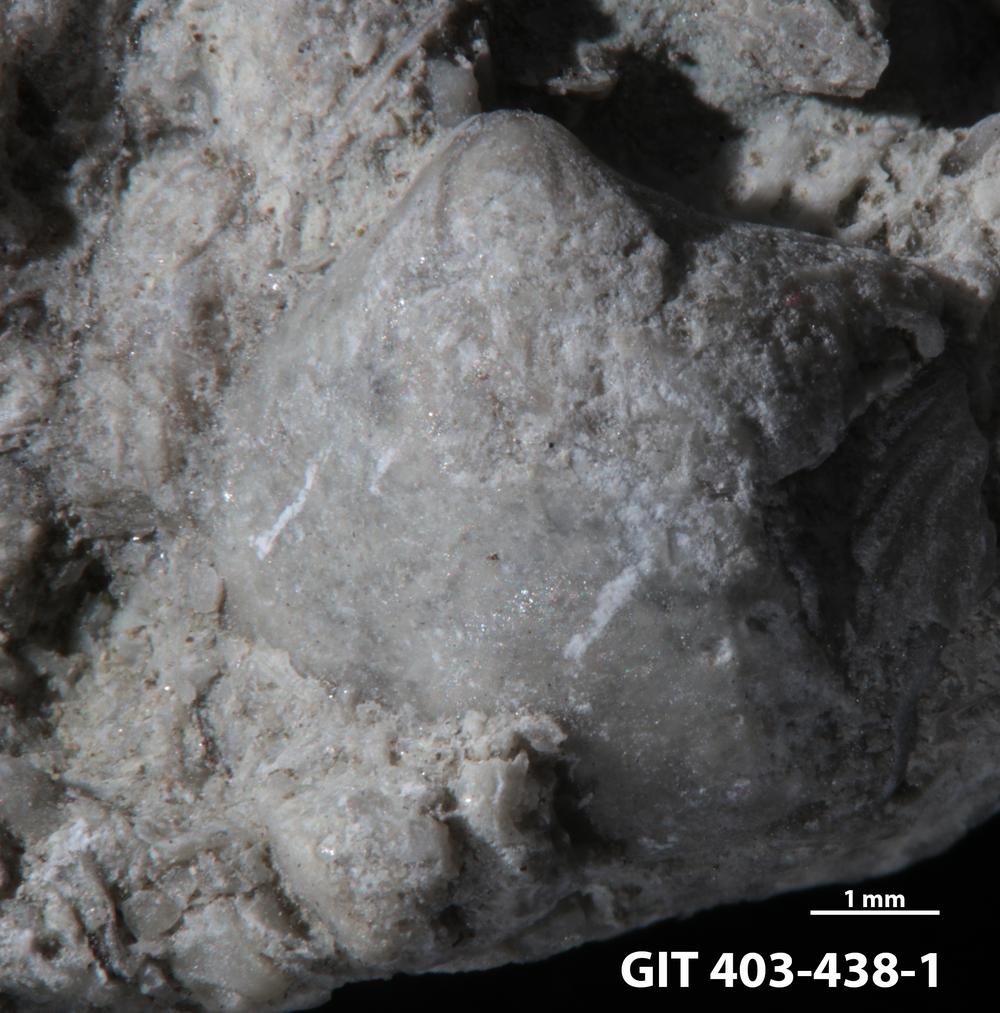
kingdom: Animalia
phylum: Brachiopoda
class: Rhynchonellata
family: Athyrididae
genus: Collarothyris
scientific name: Collarothyris
